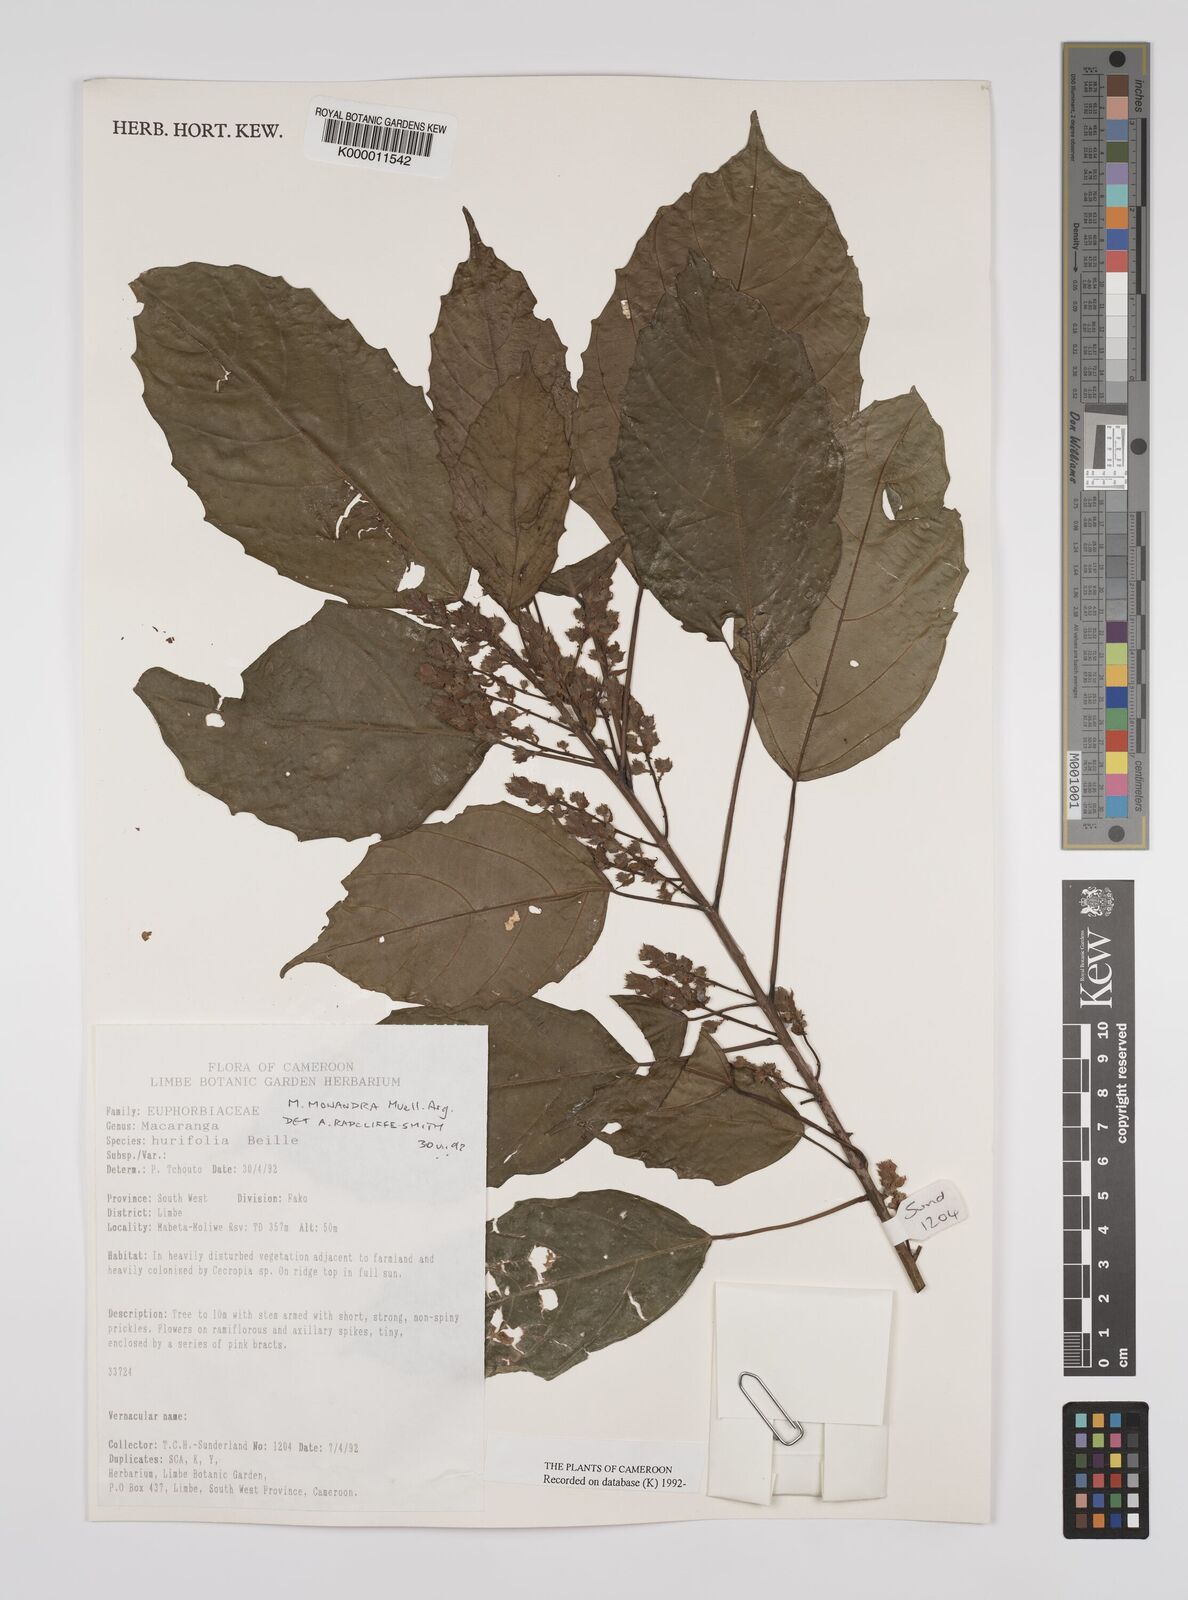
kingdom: Plantae
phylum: Tracheophyta
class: Magnoliopsida
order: Malpighiales
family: Euphorbiaceae
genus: Macaranga
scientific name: Macaranga
